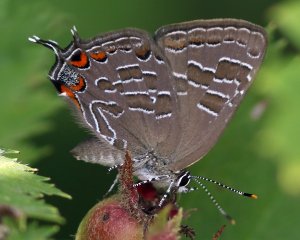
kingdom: Animalia
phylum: Arthropoda
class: Insecta
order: Lepidoptera
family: Lycaenidae
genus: Satyrium
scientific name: Satyrium liparops
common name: Striped Hairstreak
